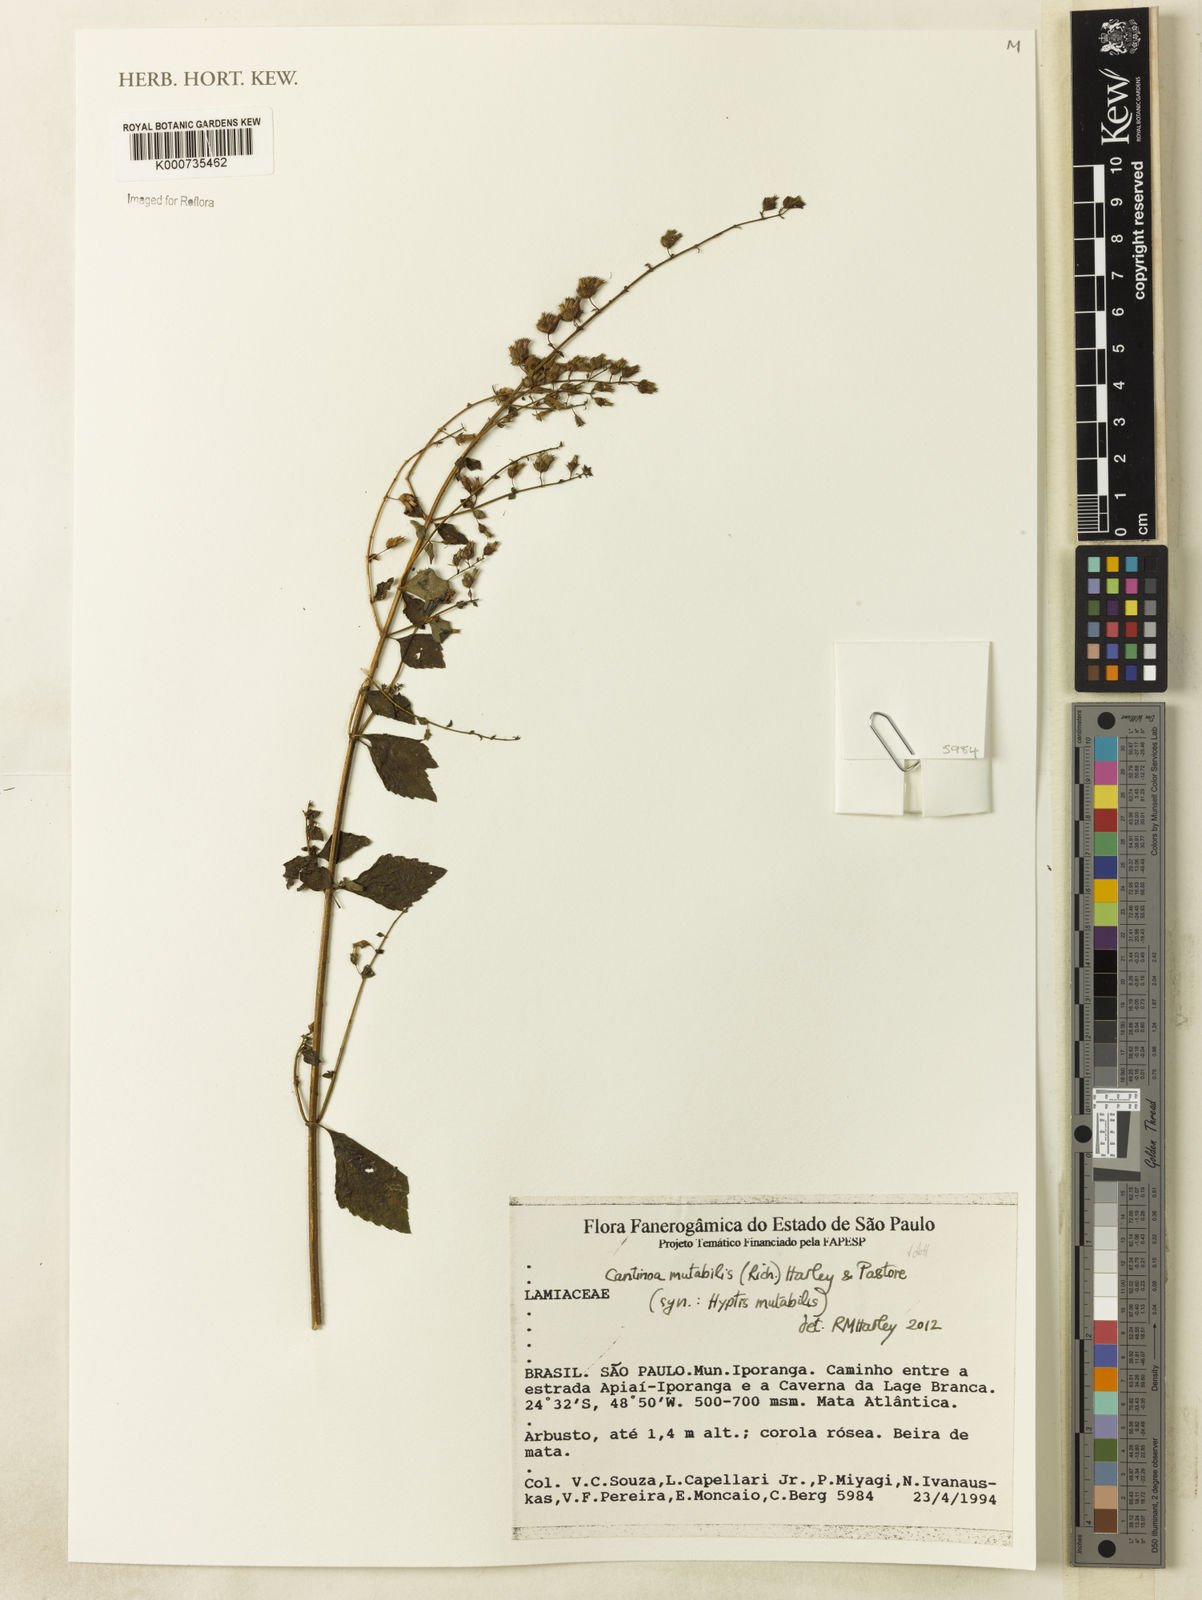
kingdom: Plantae
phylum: Tracheophyta
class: Magnoliopsida
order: Lamiales
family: Lamiaceae
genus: Cantinoa
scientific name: Cantinoa mutabilis
